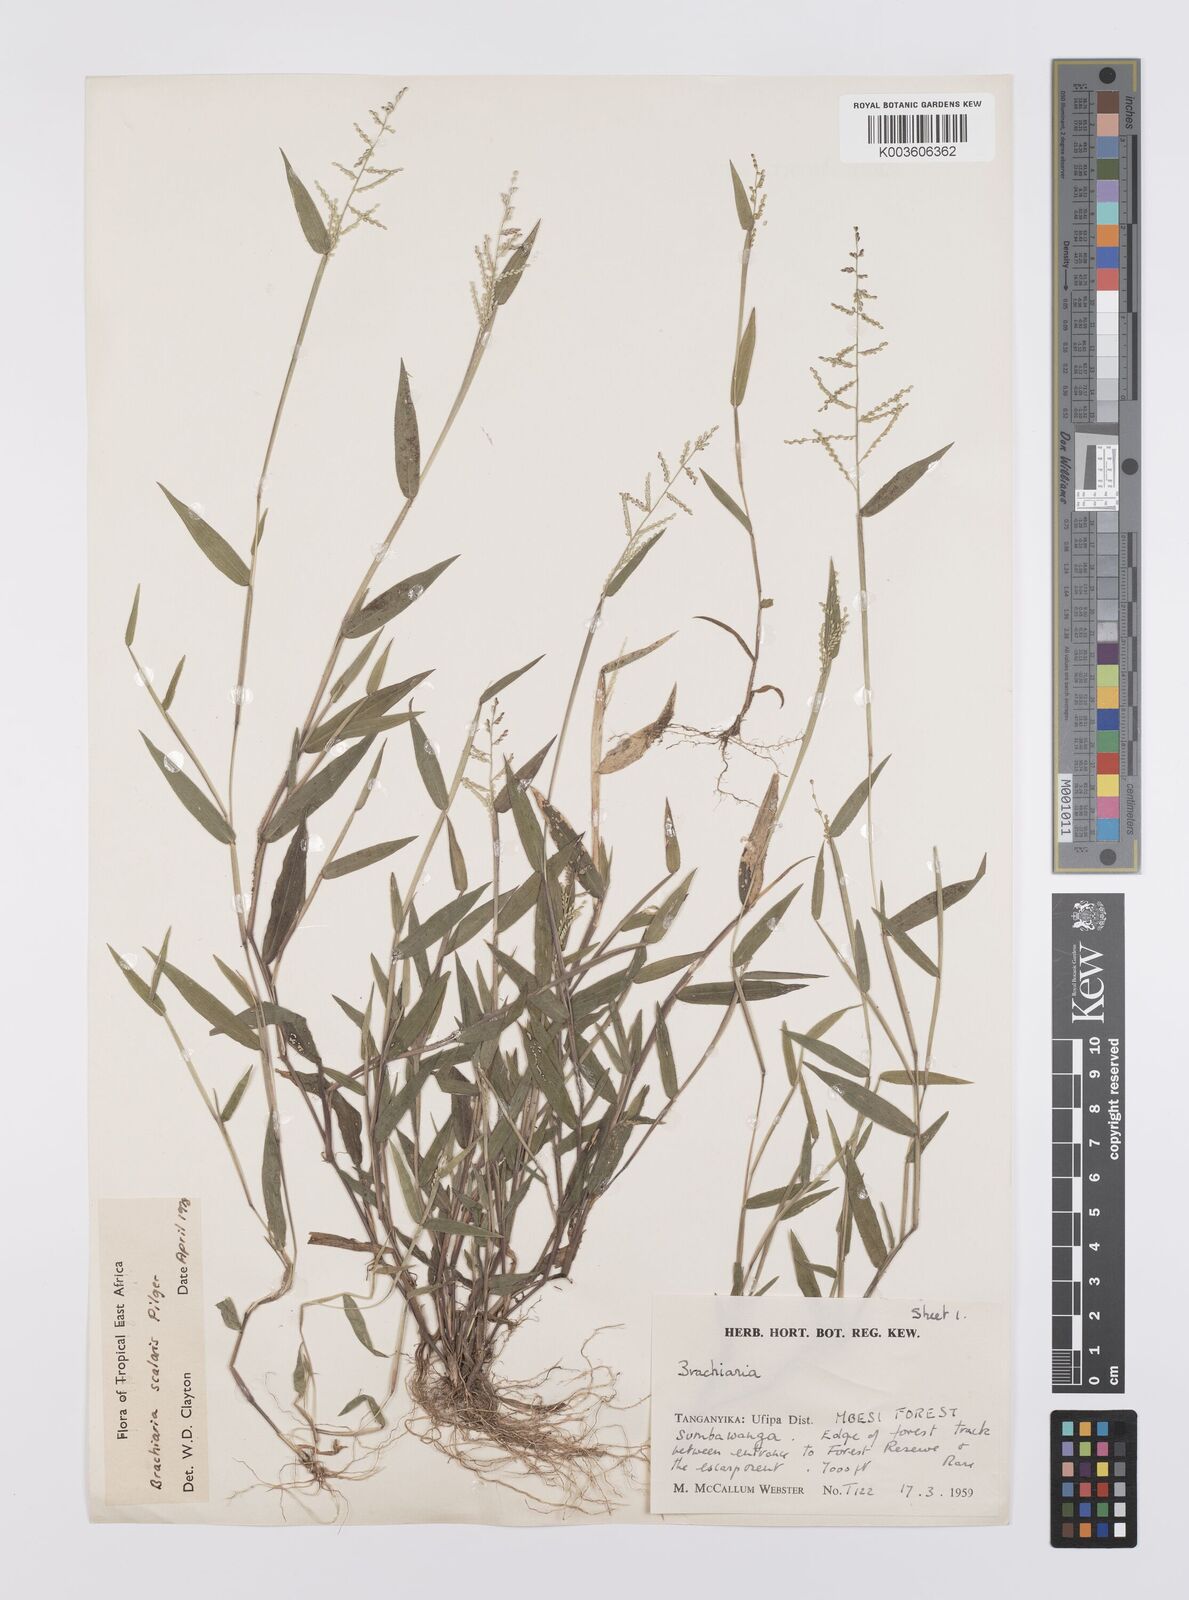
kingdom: Plantae
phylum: Tracheophyta
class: Liliopsida
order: Poales
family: Poaceae
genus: Urochloa
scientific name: Urochloa comata
